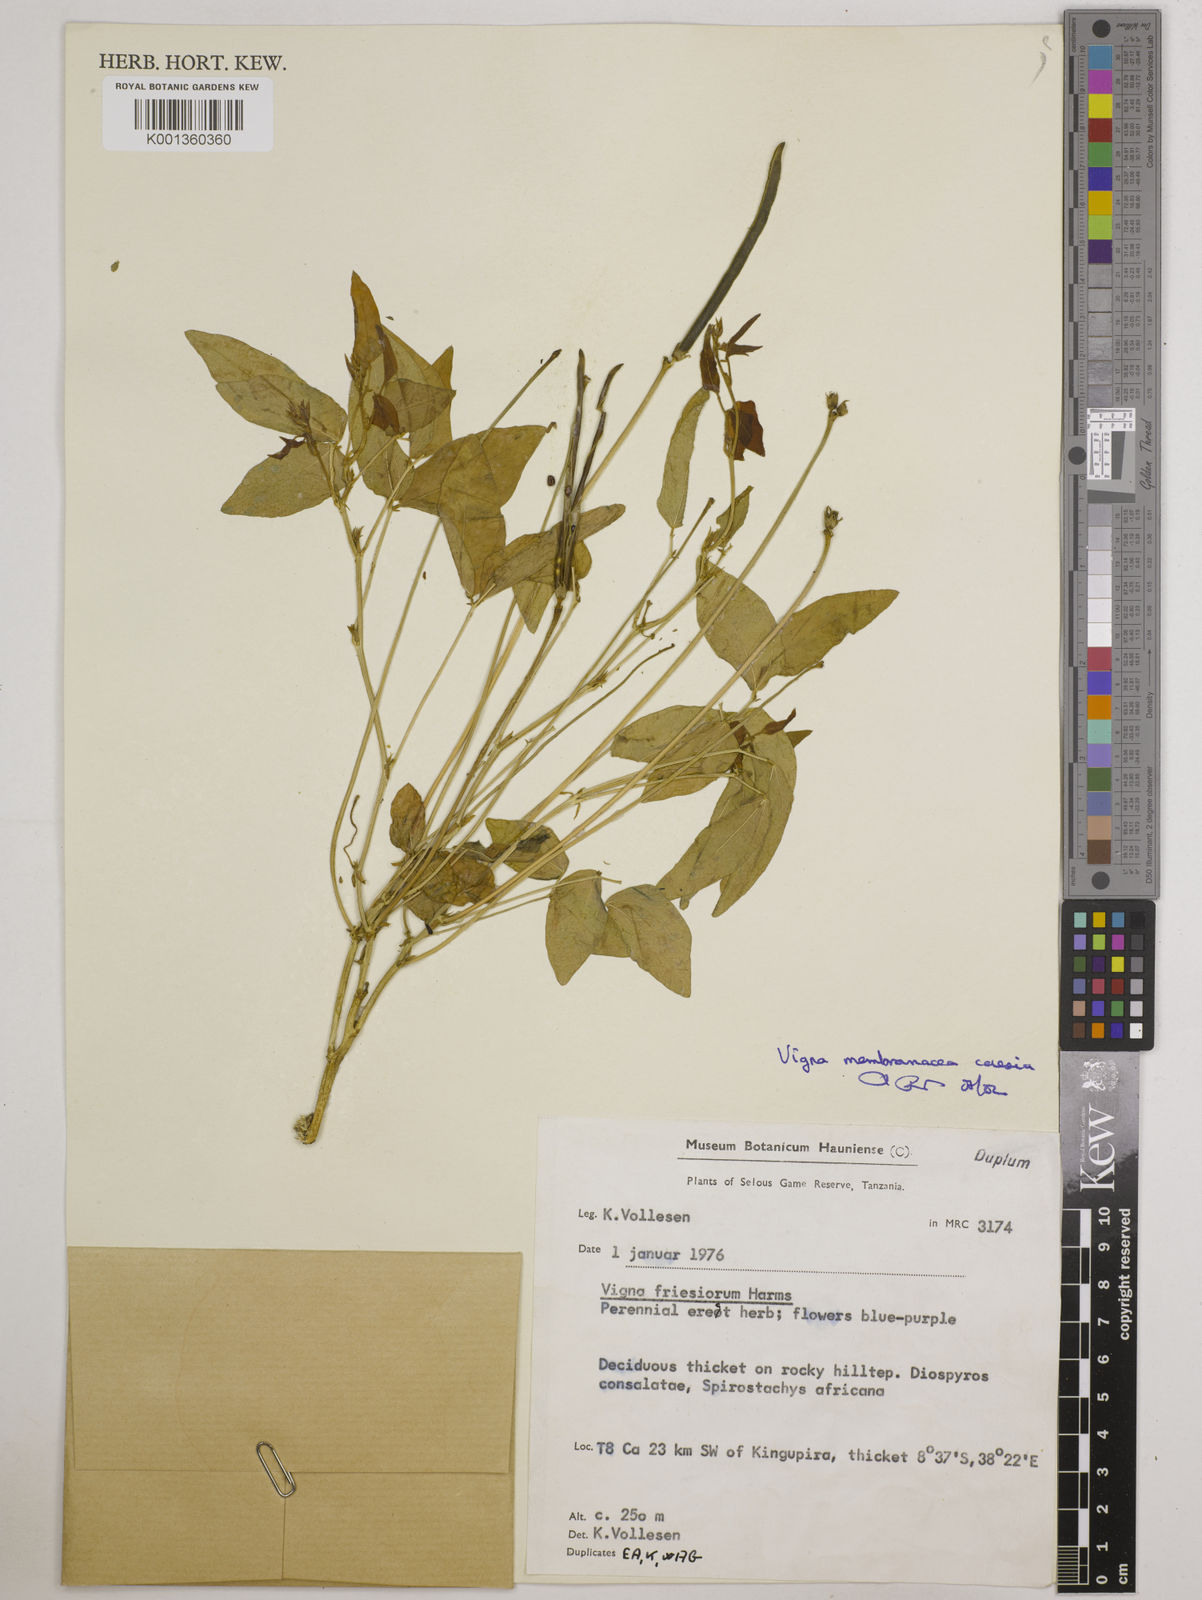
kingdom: Plantae
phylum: Tracheophyta
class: Magnoliopsida
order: Fabales
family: Fabaceae
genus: Vigna
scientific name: Vigna
